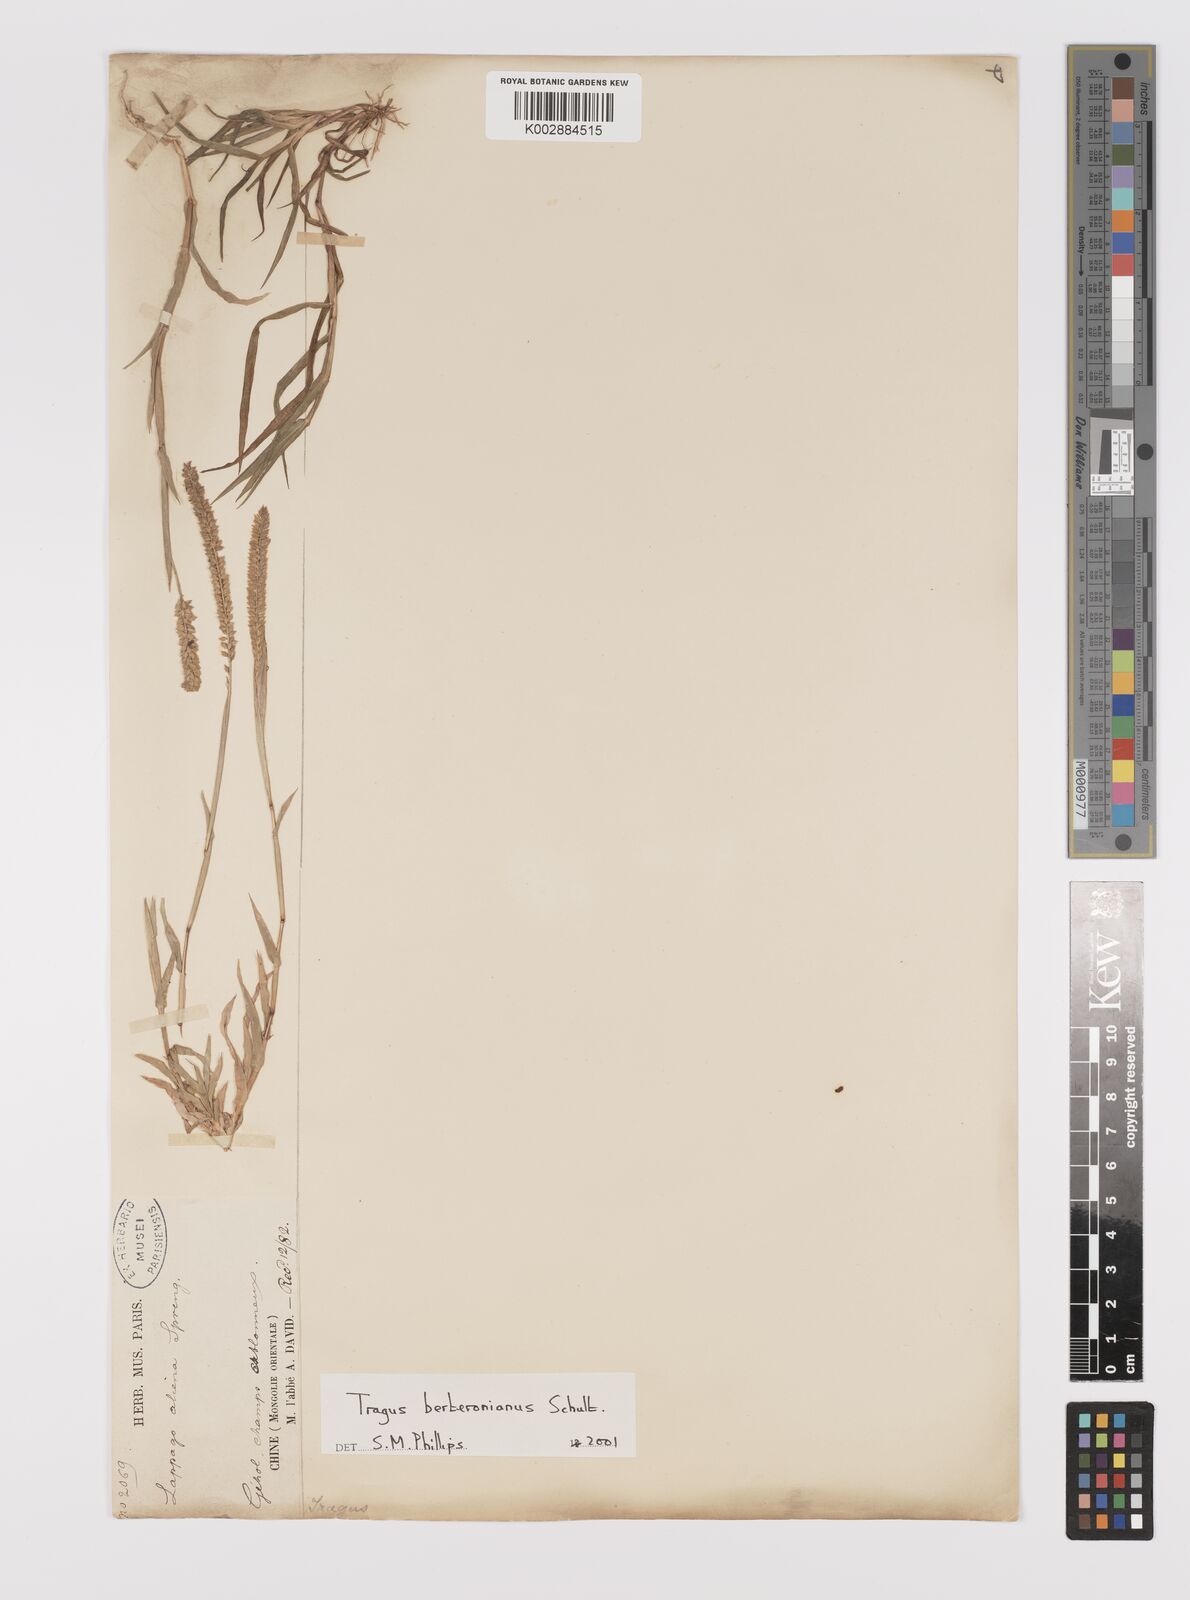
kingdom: Plantae
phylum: Tracheophyta
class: Liliopsida
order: Poales
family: Poaceae
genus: Tragus
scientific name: Tragus berteronianus
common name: African bur-grass
